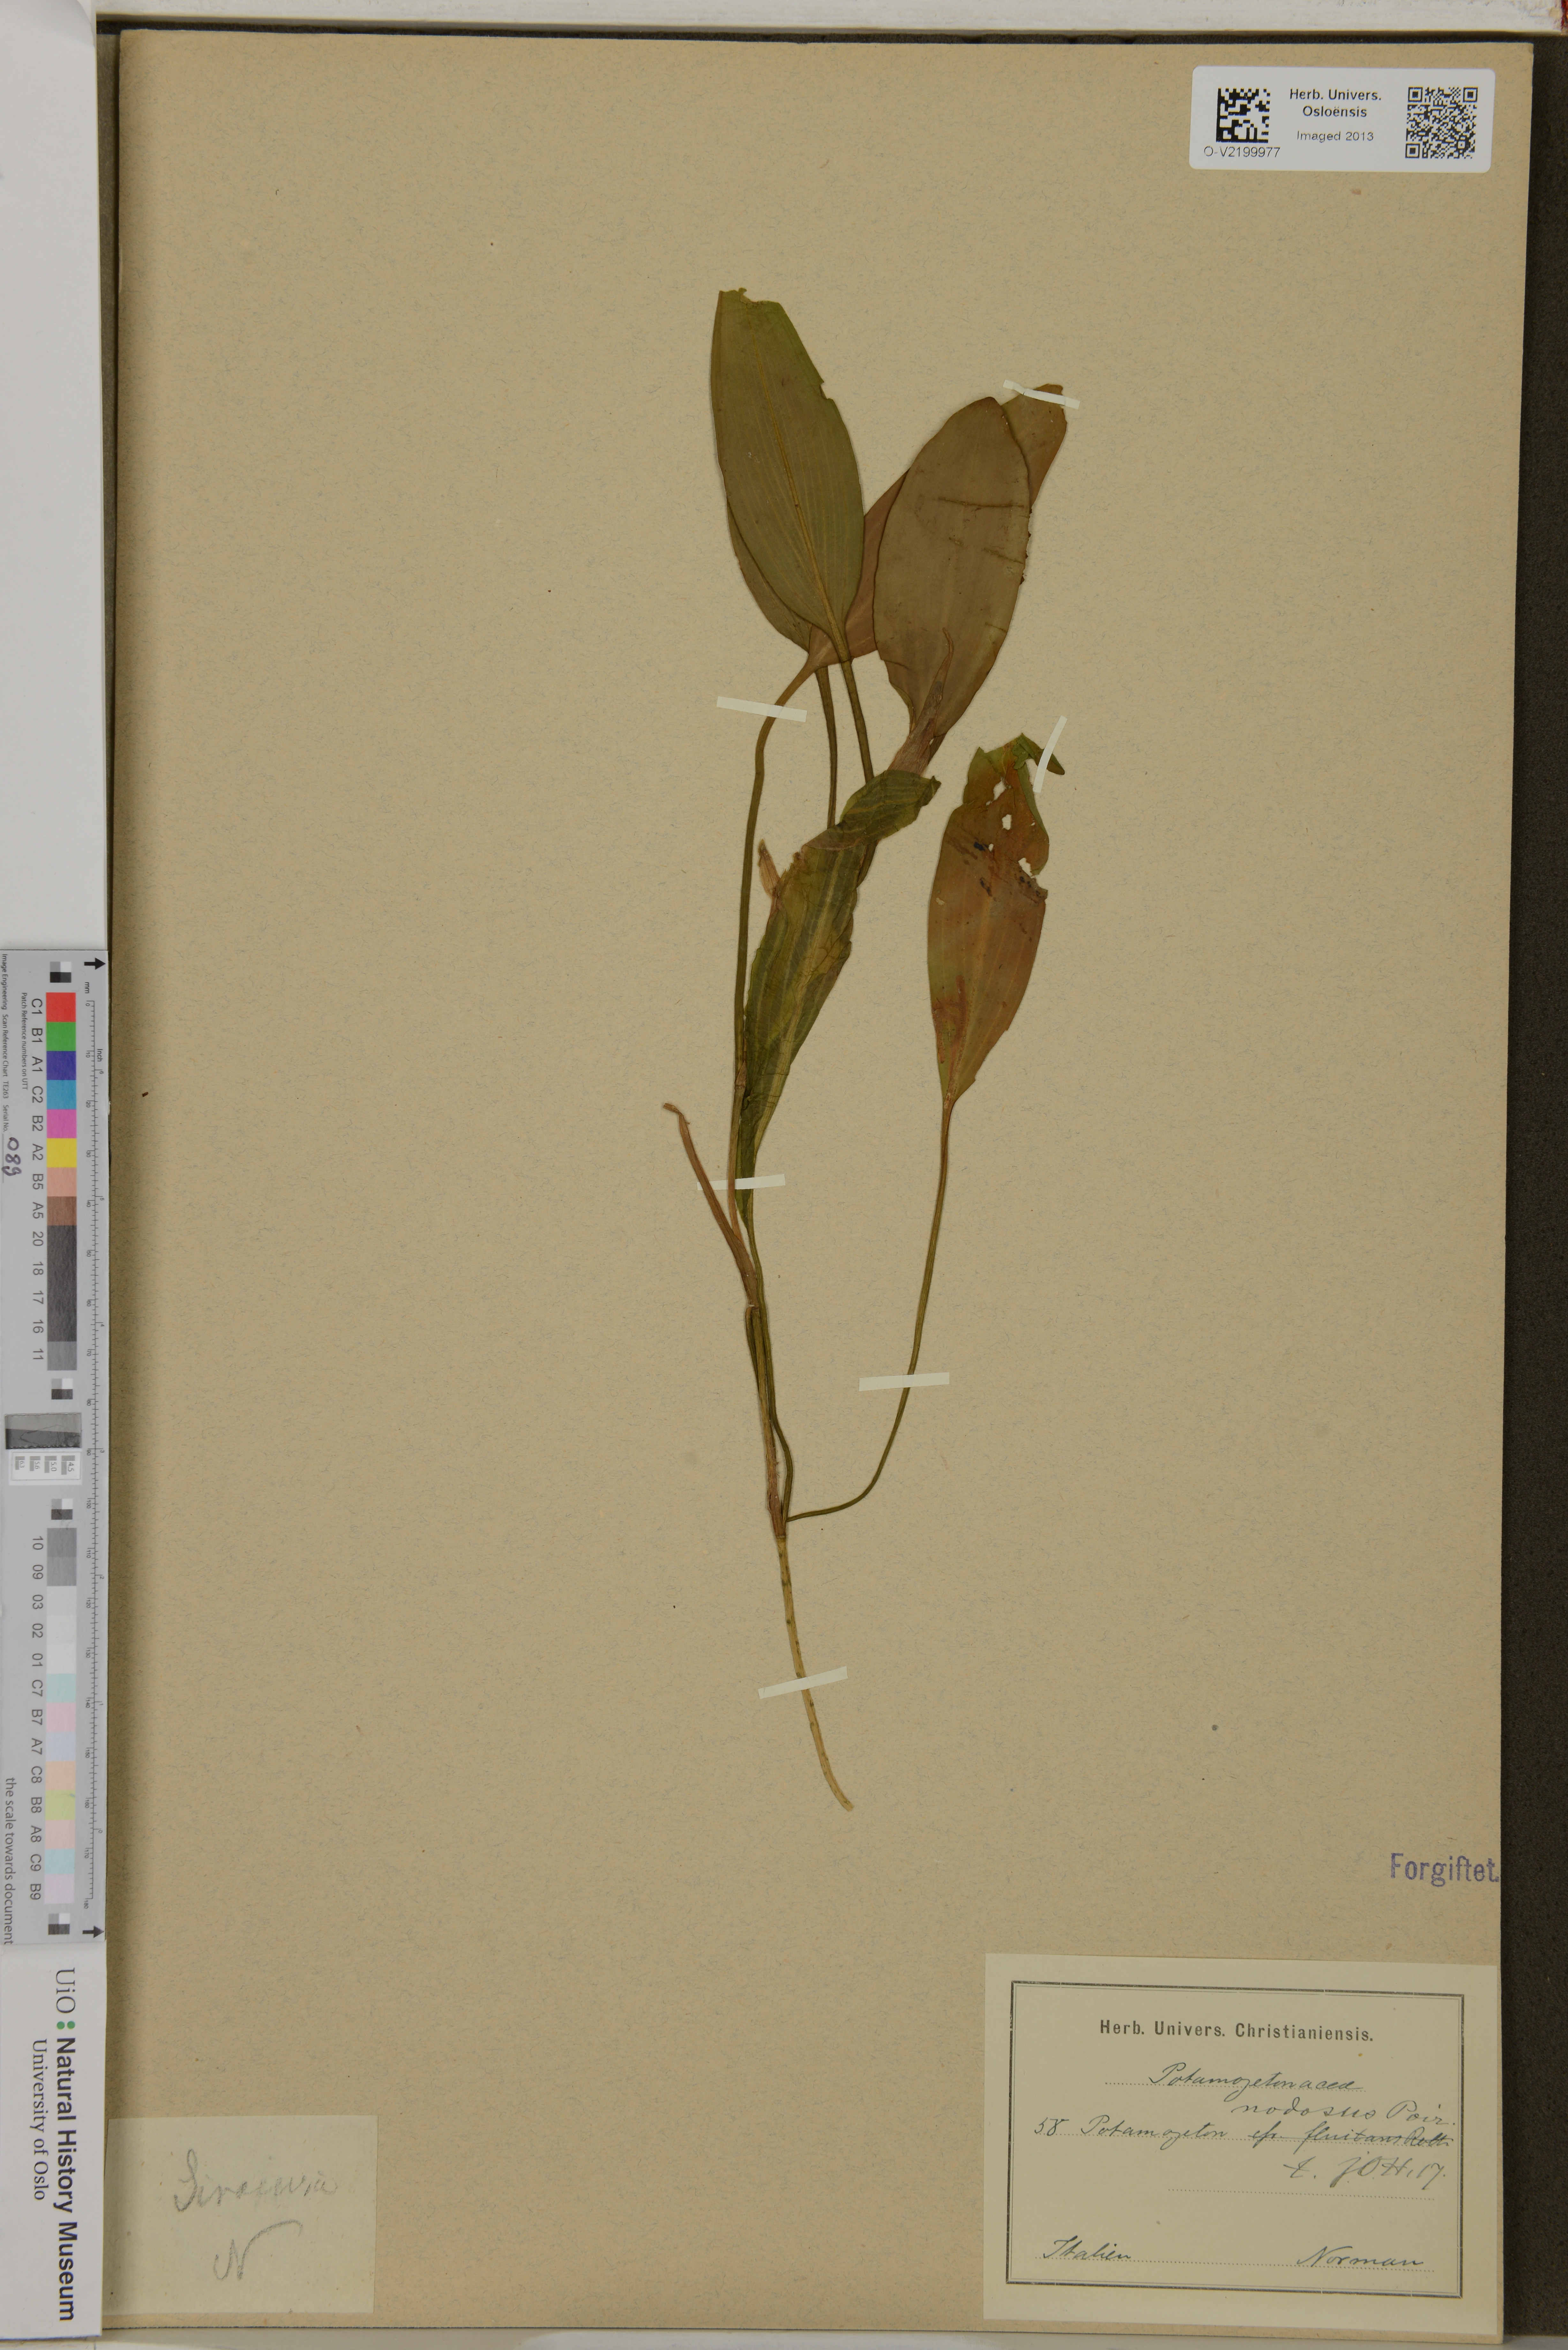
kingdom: Plantae
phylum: Tracheophyta
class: Liliopsida
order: Alismatales
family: Potamogetonaceae
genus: Potamogeton
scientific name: Potamogeton fluitans
